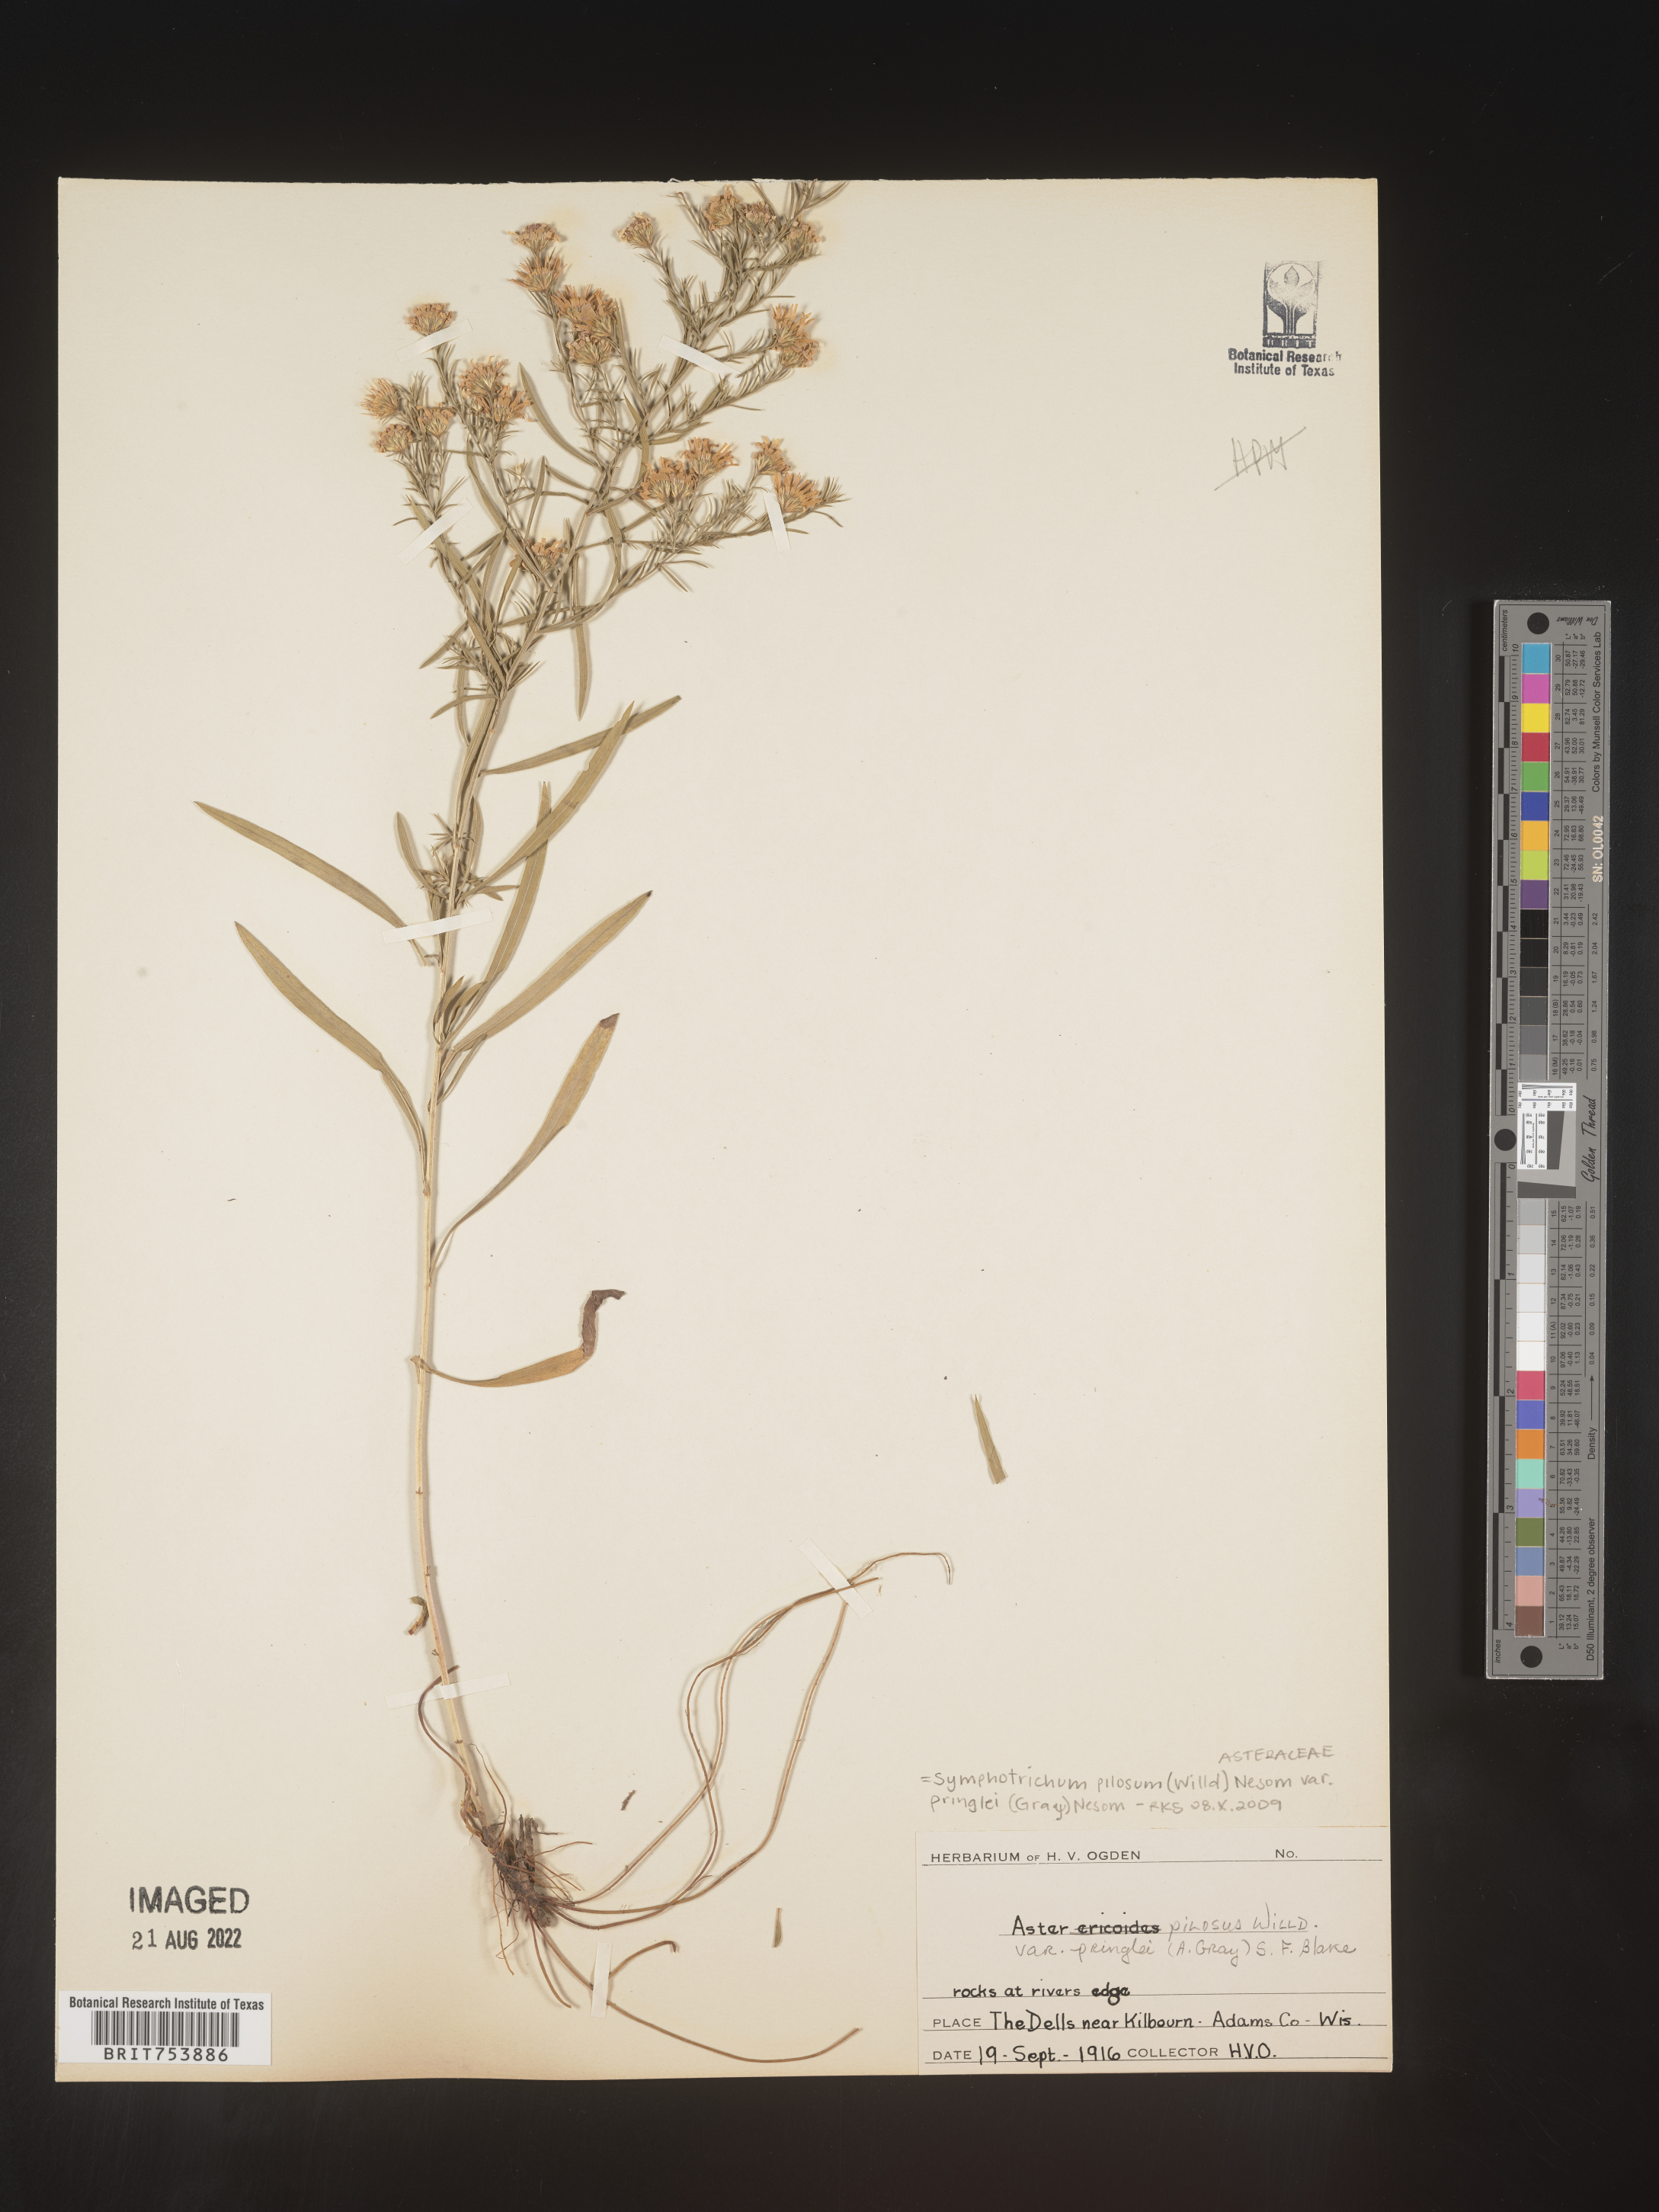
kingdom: Plantae
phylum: Tracheophyta
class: Magnoliopsida
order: Asterales
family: Asteraceae
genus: Symphyotrichum
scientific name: Symphyotrichum pilosum
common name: Awl aster
